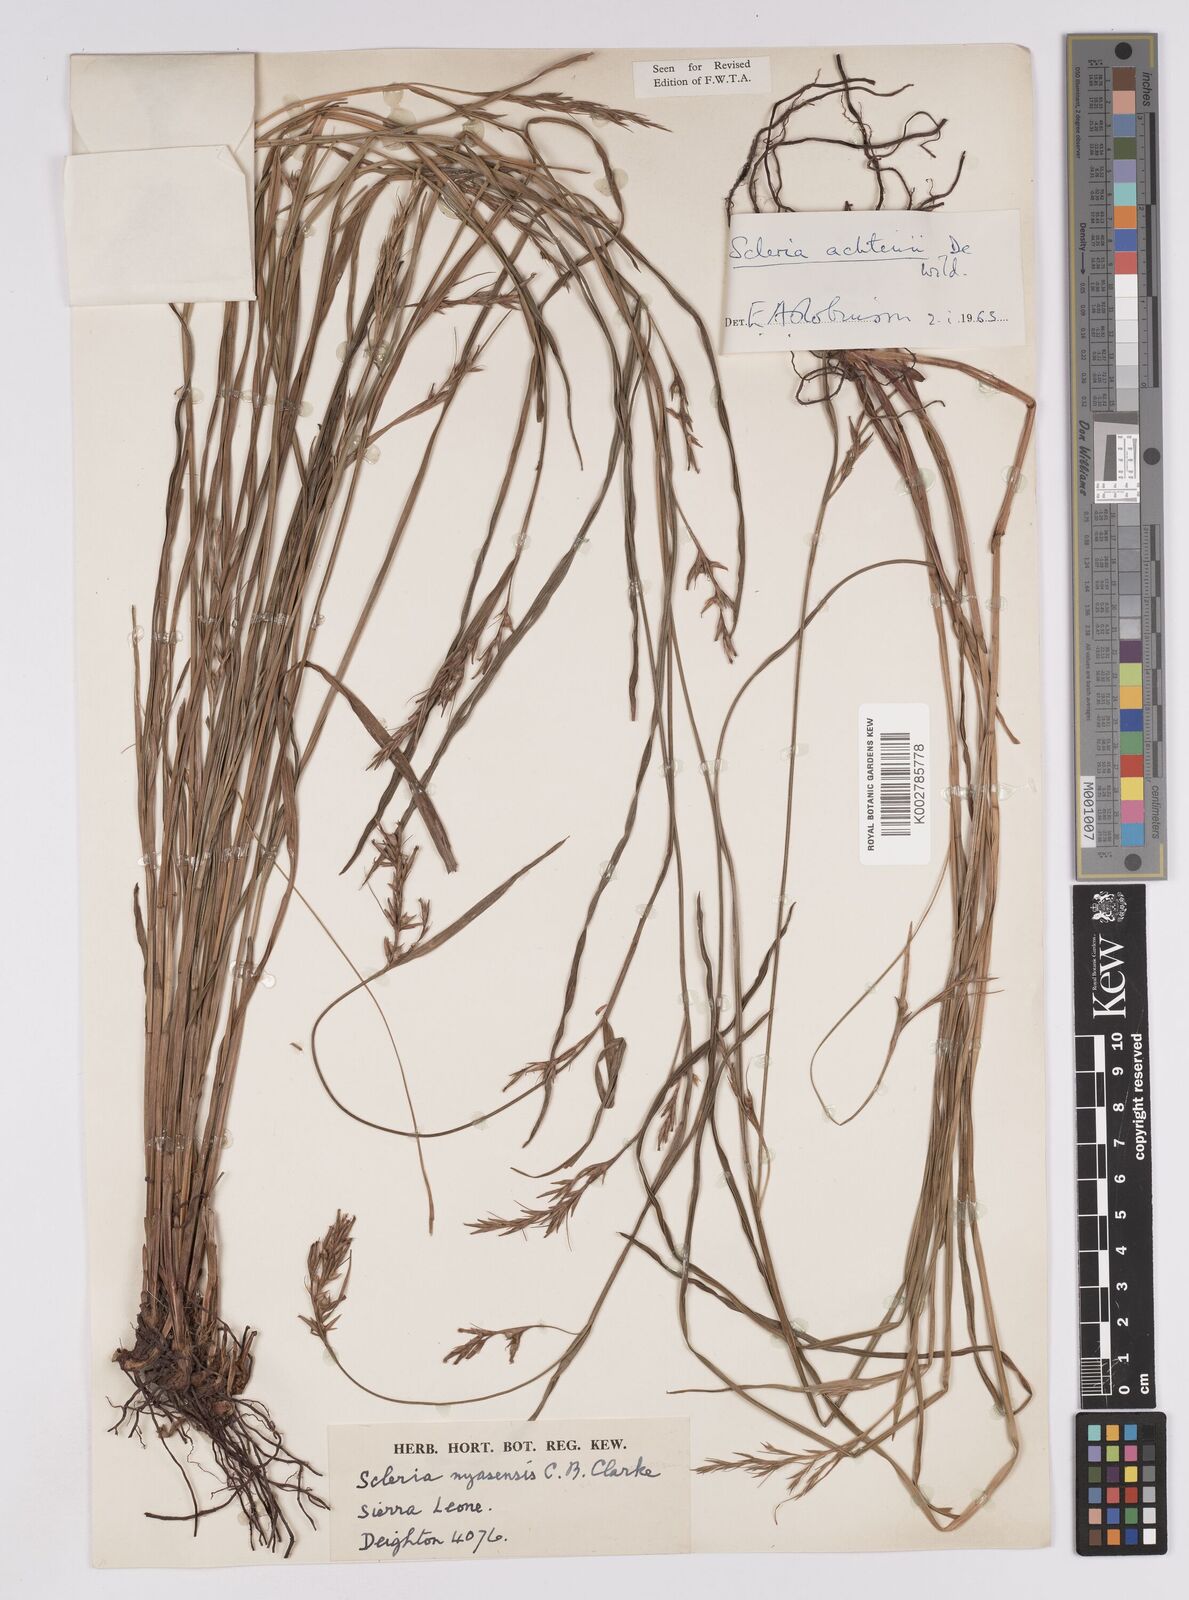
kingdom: Plantae
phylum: Tracheophyta
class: Liliopsida
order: Poales
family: Cyperaceae
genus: Scleria
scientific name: Scleria achtenii
